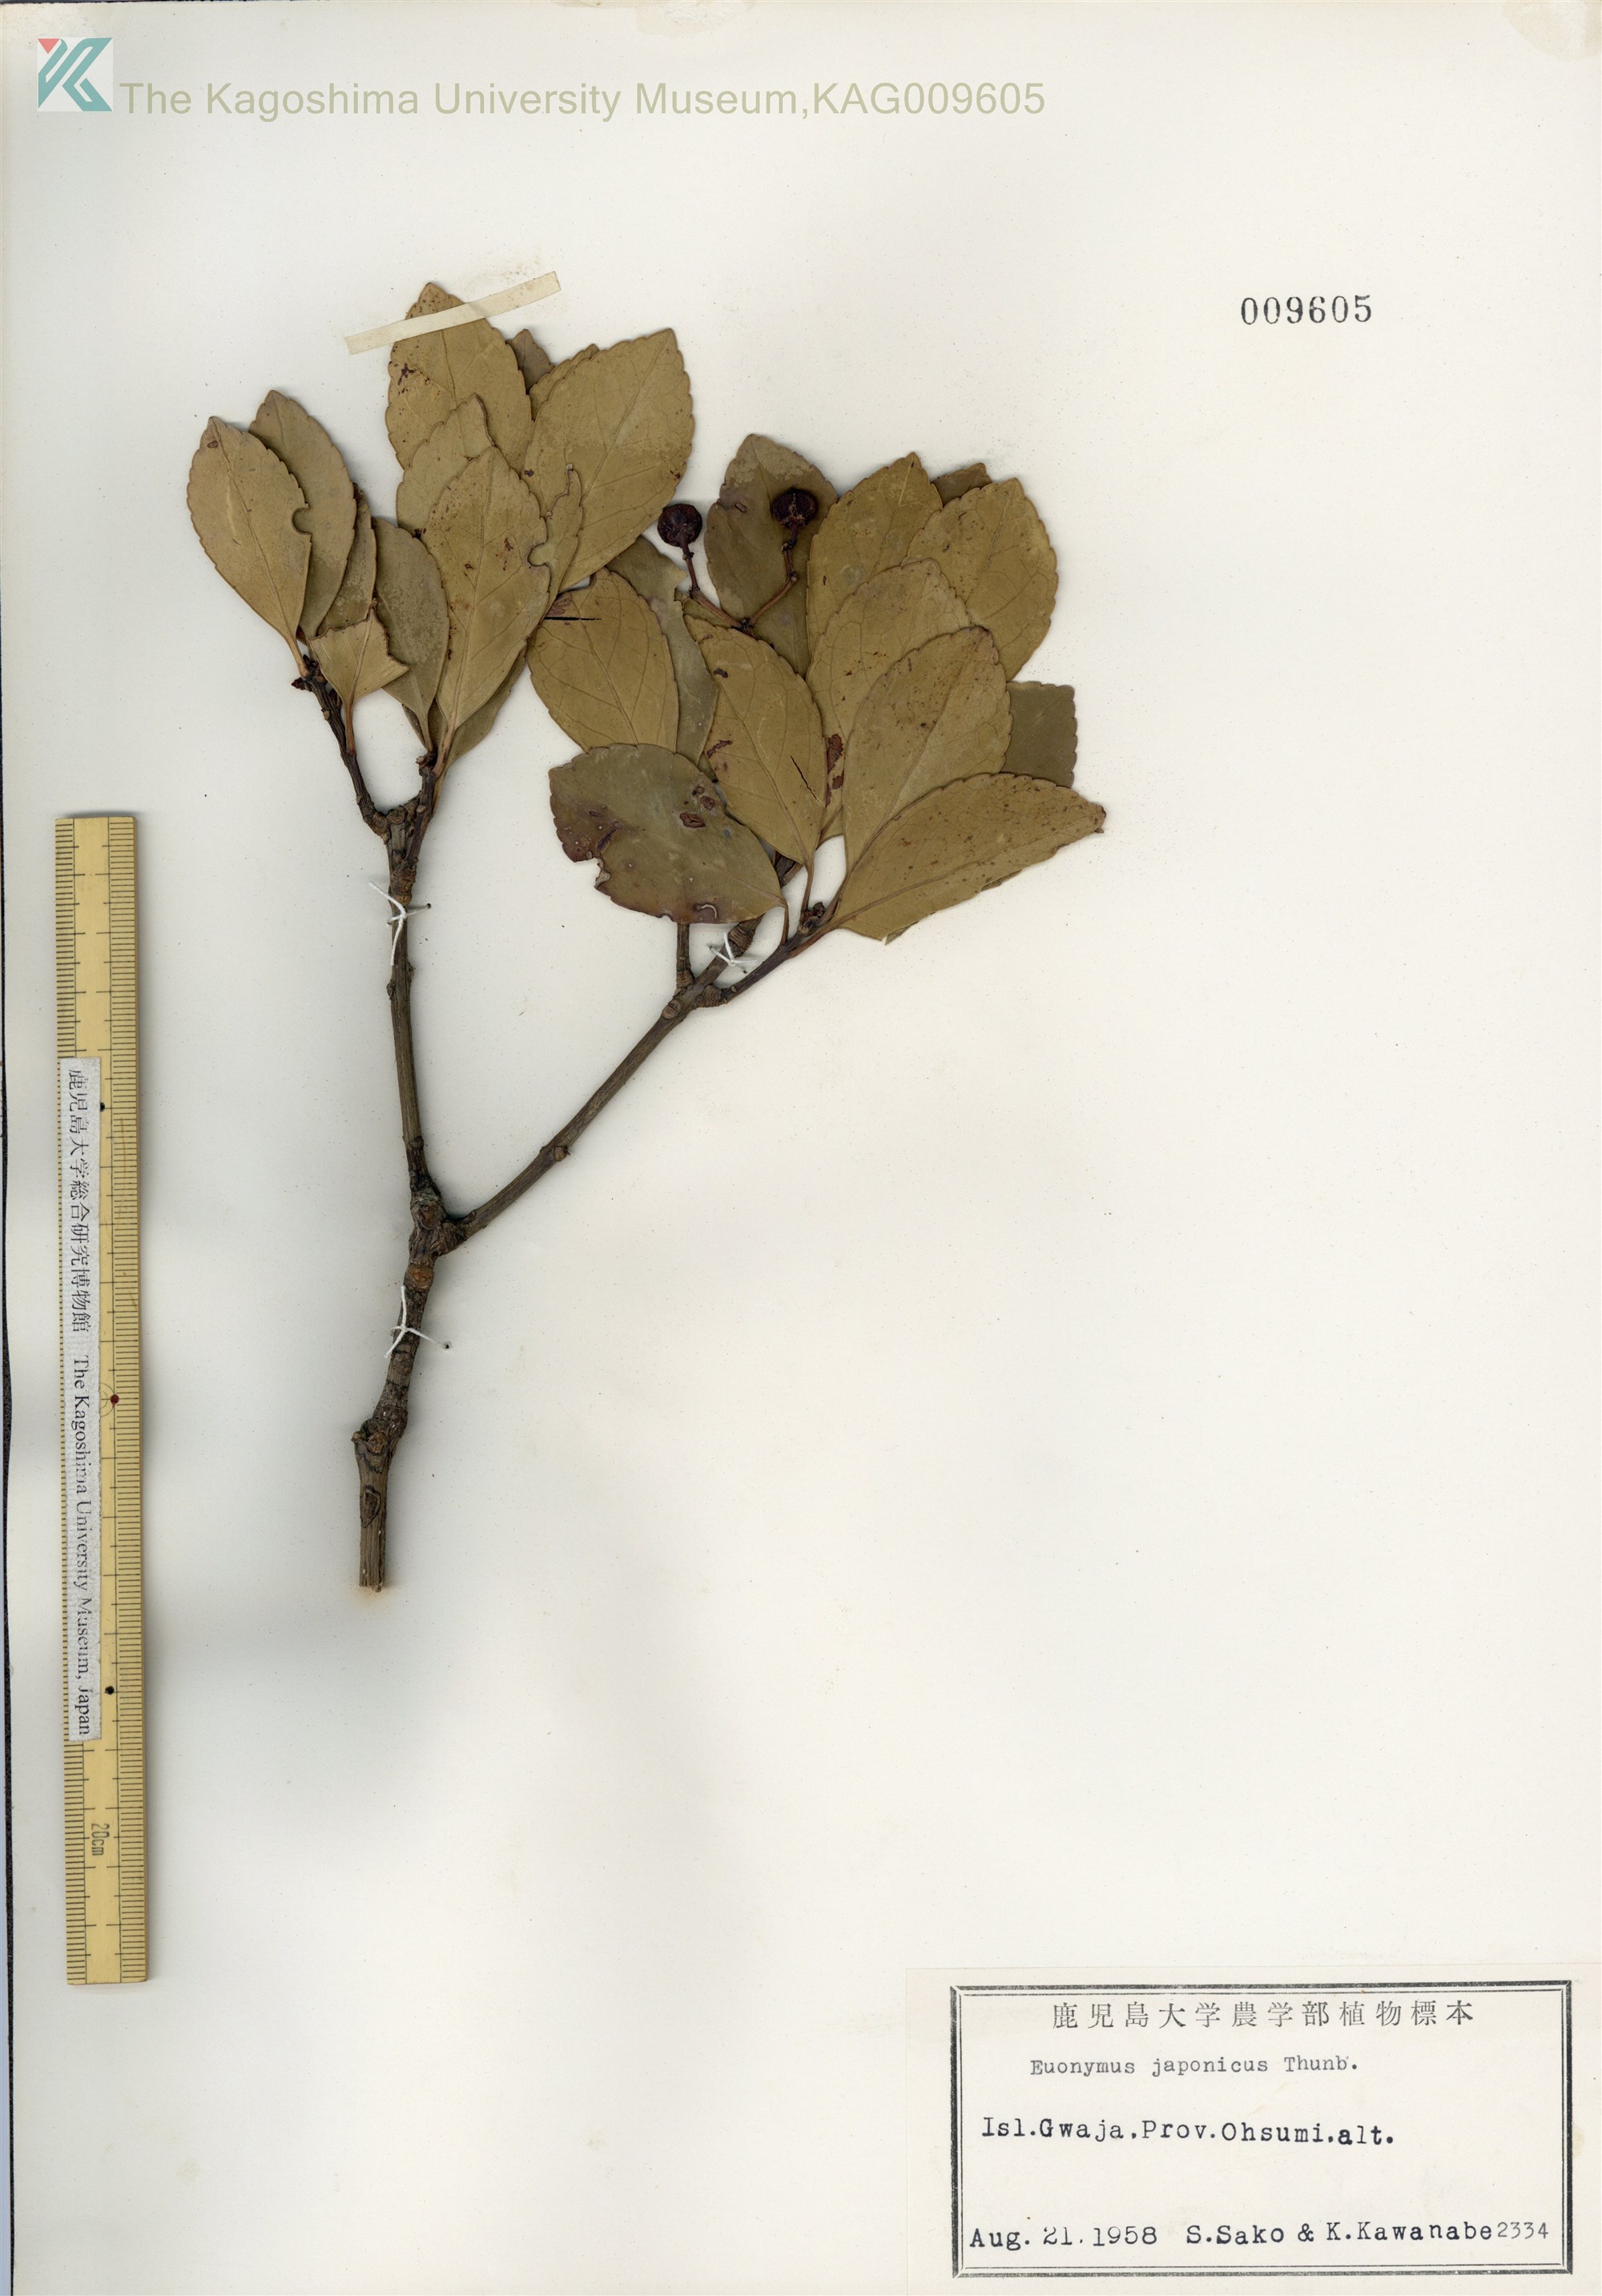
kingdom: Plantae
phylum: Tracheophyta
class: Magnoliopsida
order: Celastrales
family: Celastraceae
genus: Euonymus
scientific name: Euonymus japonicus
